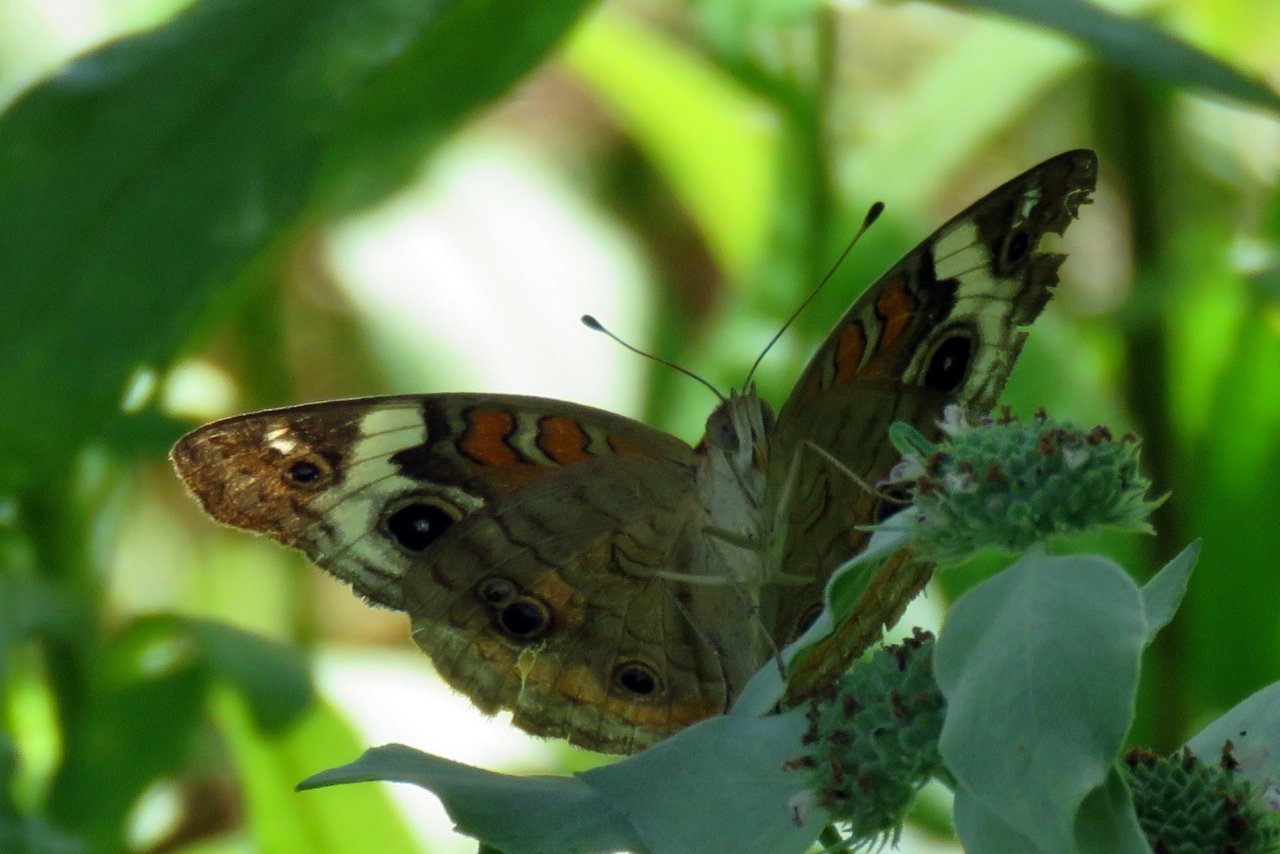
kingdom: Animalia
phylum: Arthropoda
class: Insecta
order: Lepidoptera
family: Nymphalidae
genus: Junonia
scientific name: Junonia coenia
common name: Common Buckeye
